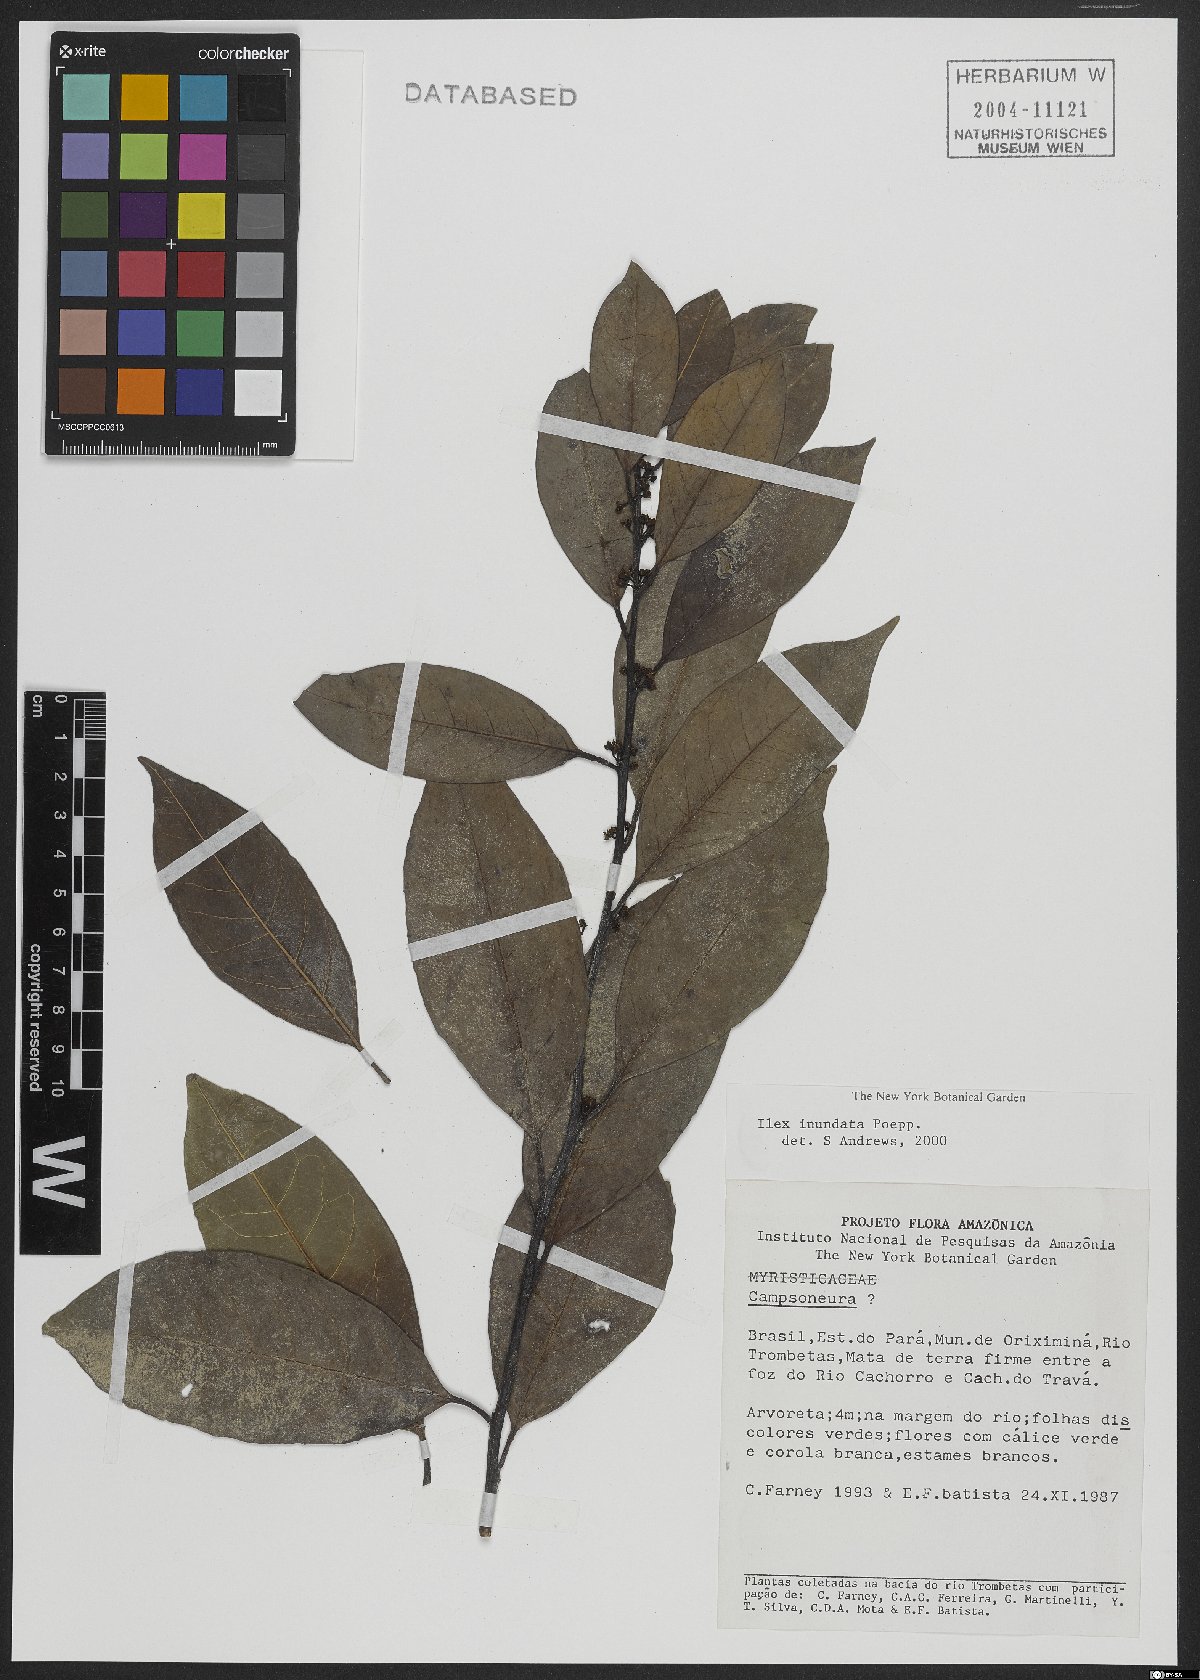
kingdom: Plantae
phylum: Tracheophyta
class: Magnoliopsida
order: Aquifoliales
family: Aquifoliaceae
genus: Ilex
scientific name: Ilex inundata
